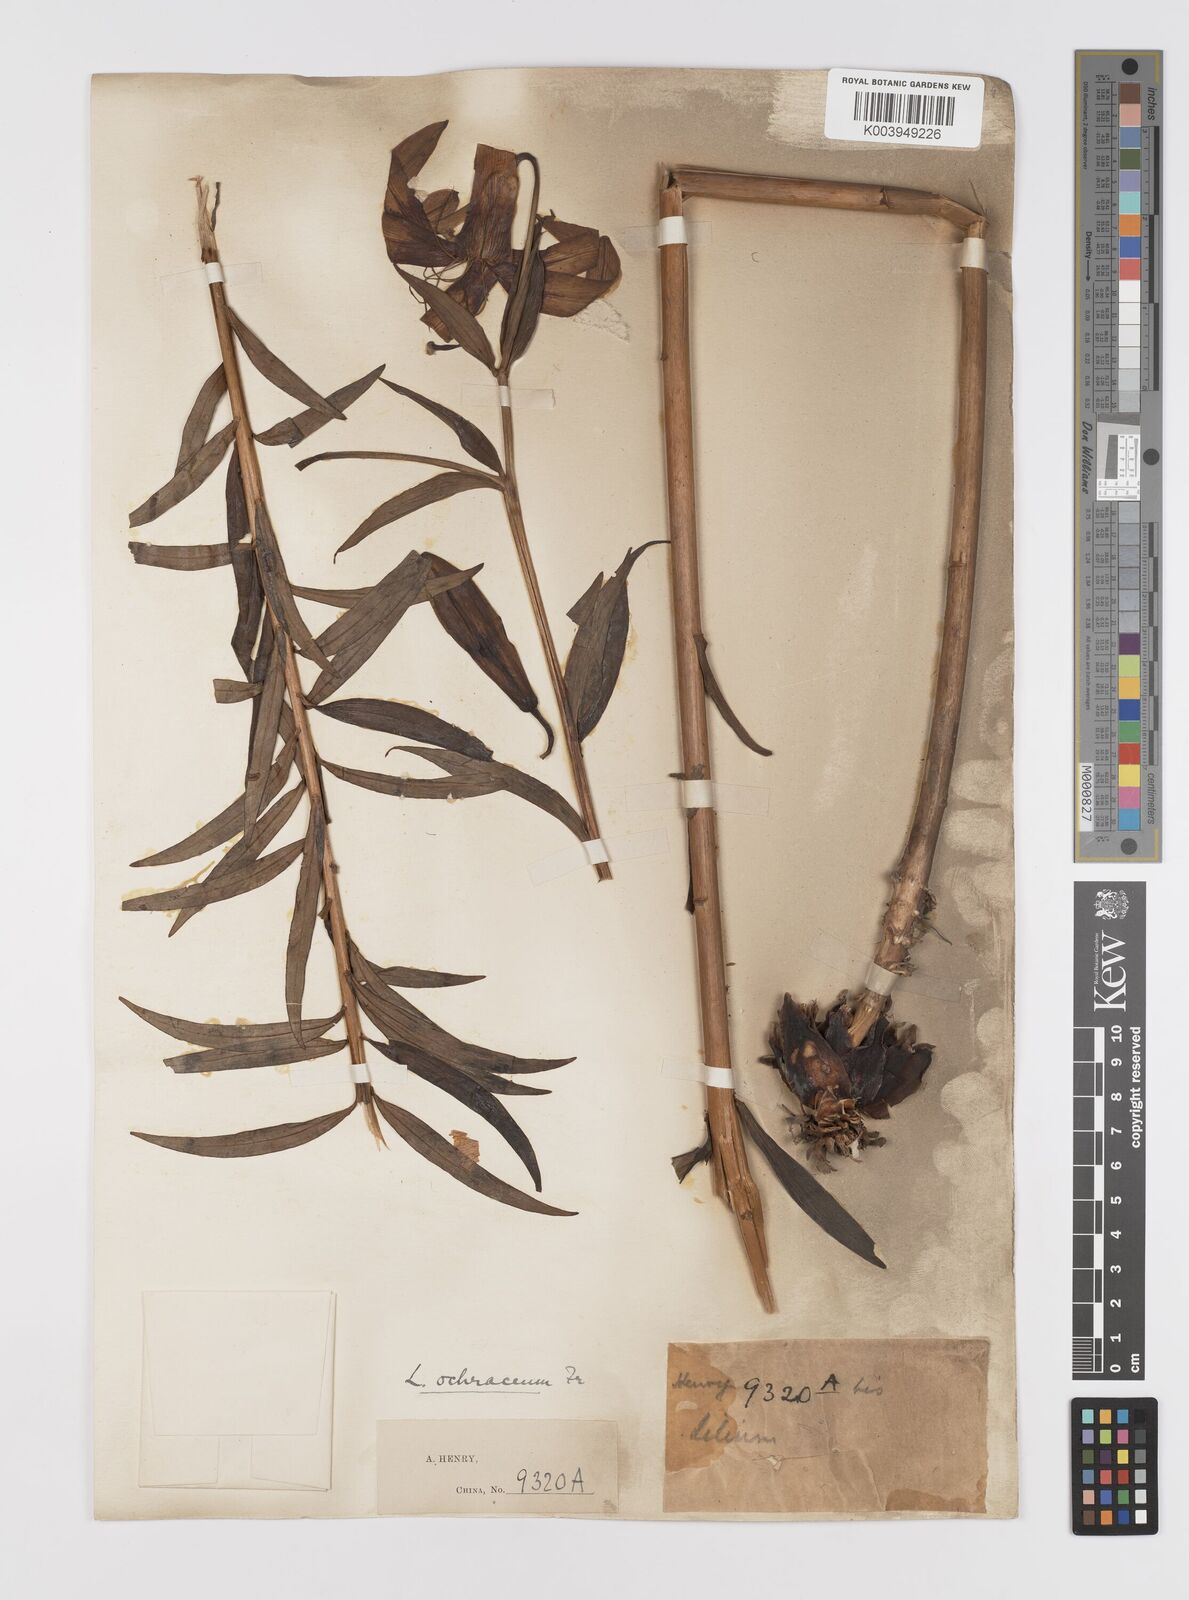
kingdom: Plantae
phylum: Tracheophyta
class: Liliopsida
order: Liliales
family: Liliaceae
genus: Lilium
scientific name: Lilium primulinum
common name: Ochre lily
